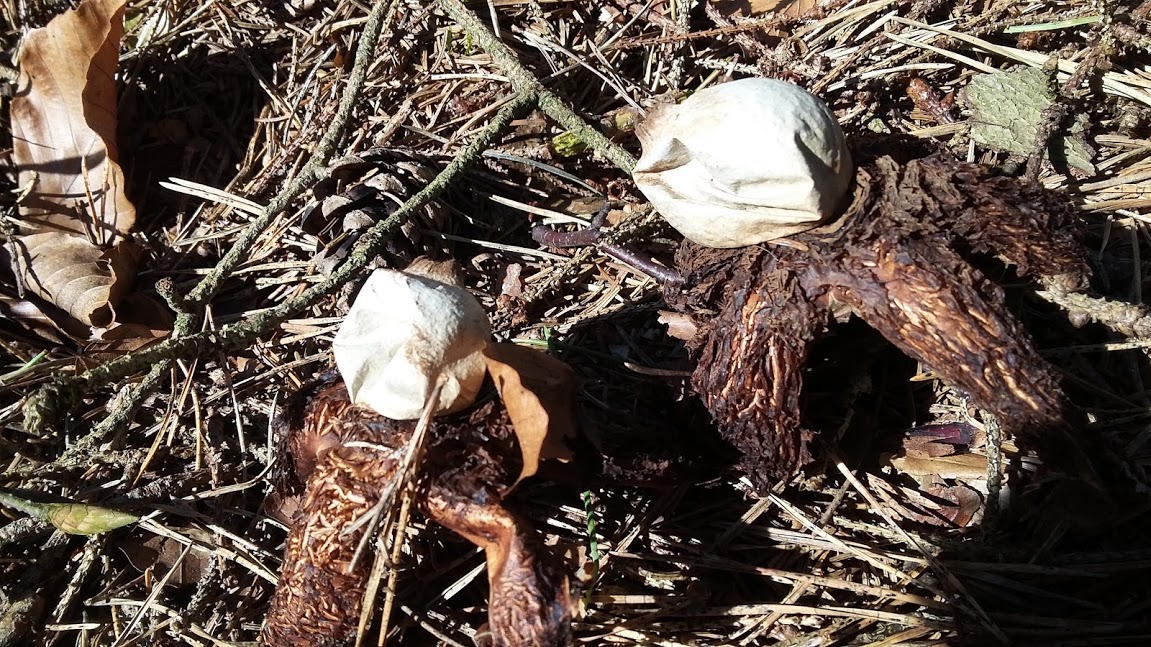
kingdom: Fungi
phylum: Basidiomycota
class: Agaricomycetes
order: Geastrales
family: Geastraceae
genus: Geastrum
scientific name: Geastrum michelianum
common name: kødet stjernebold
